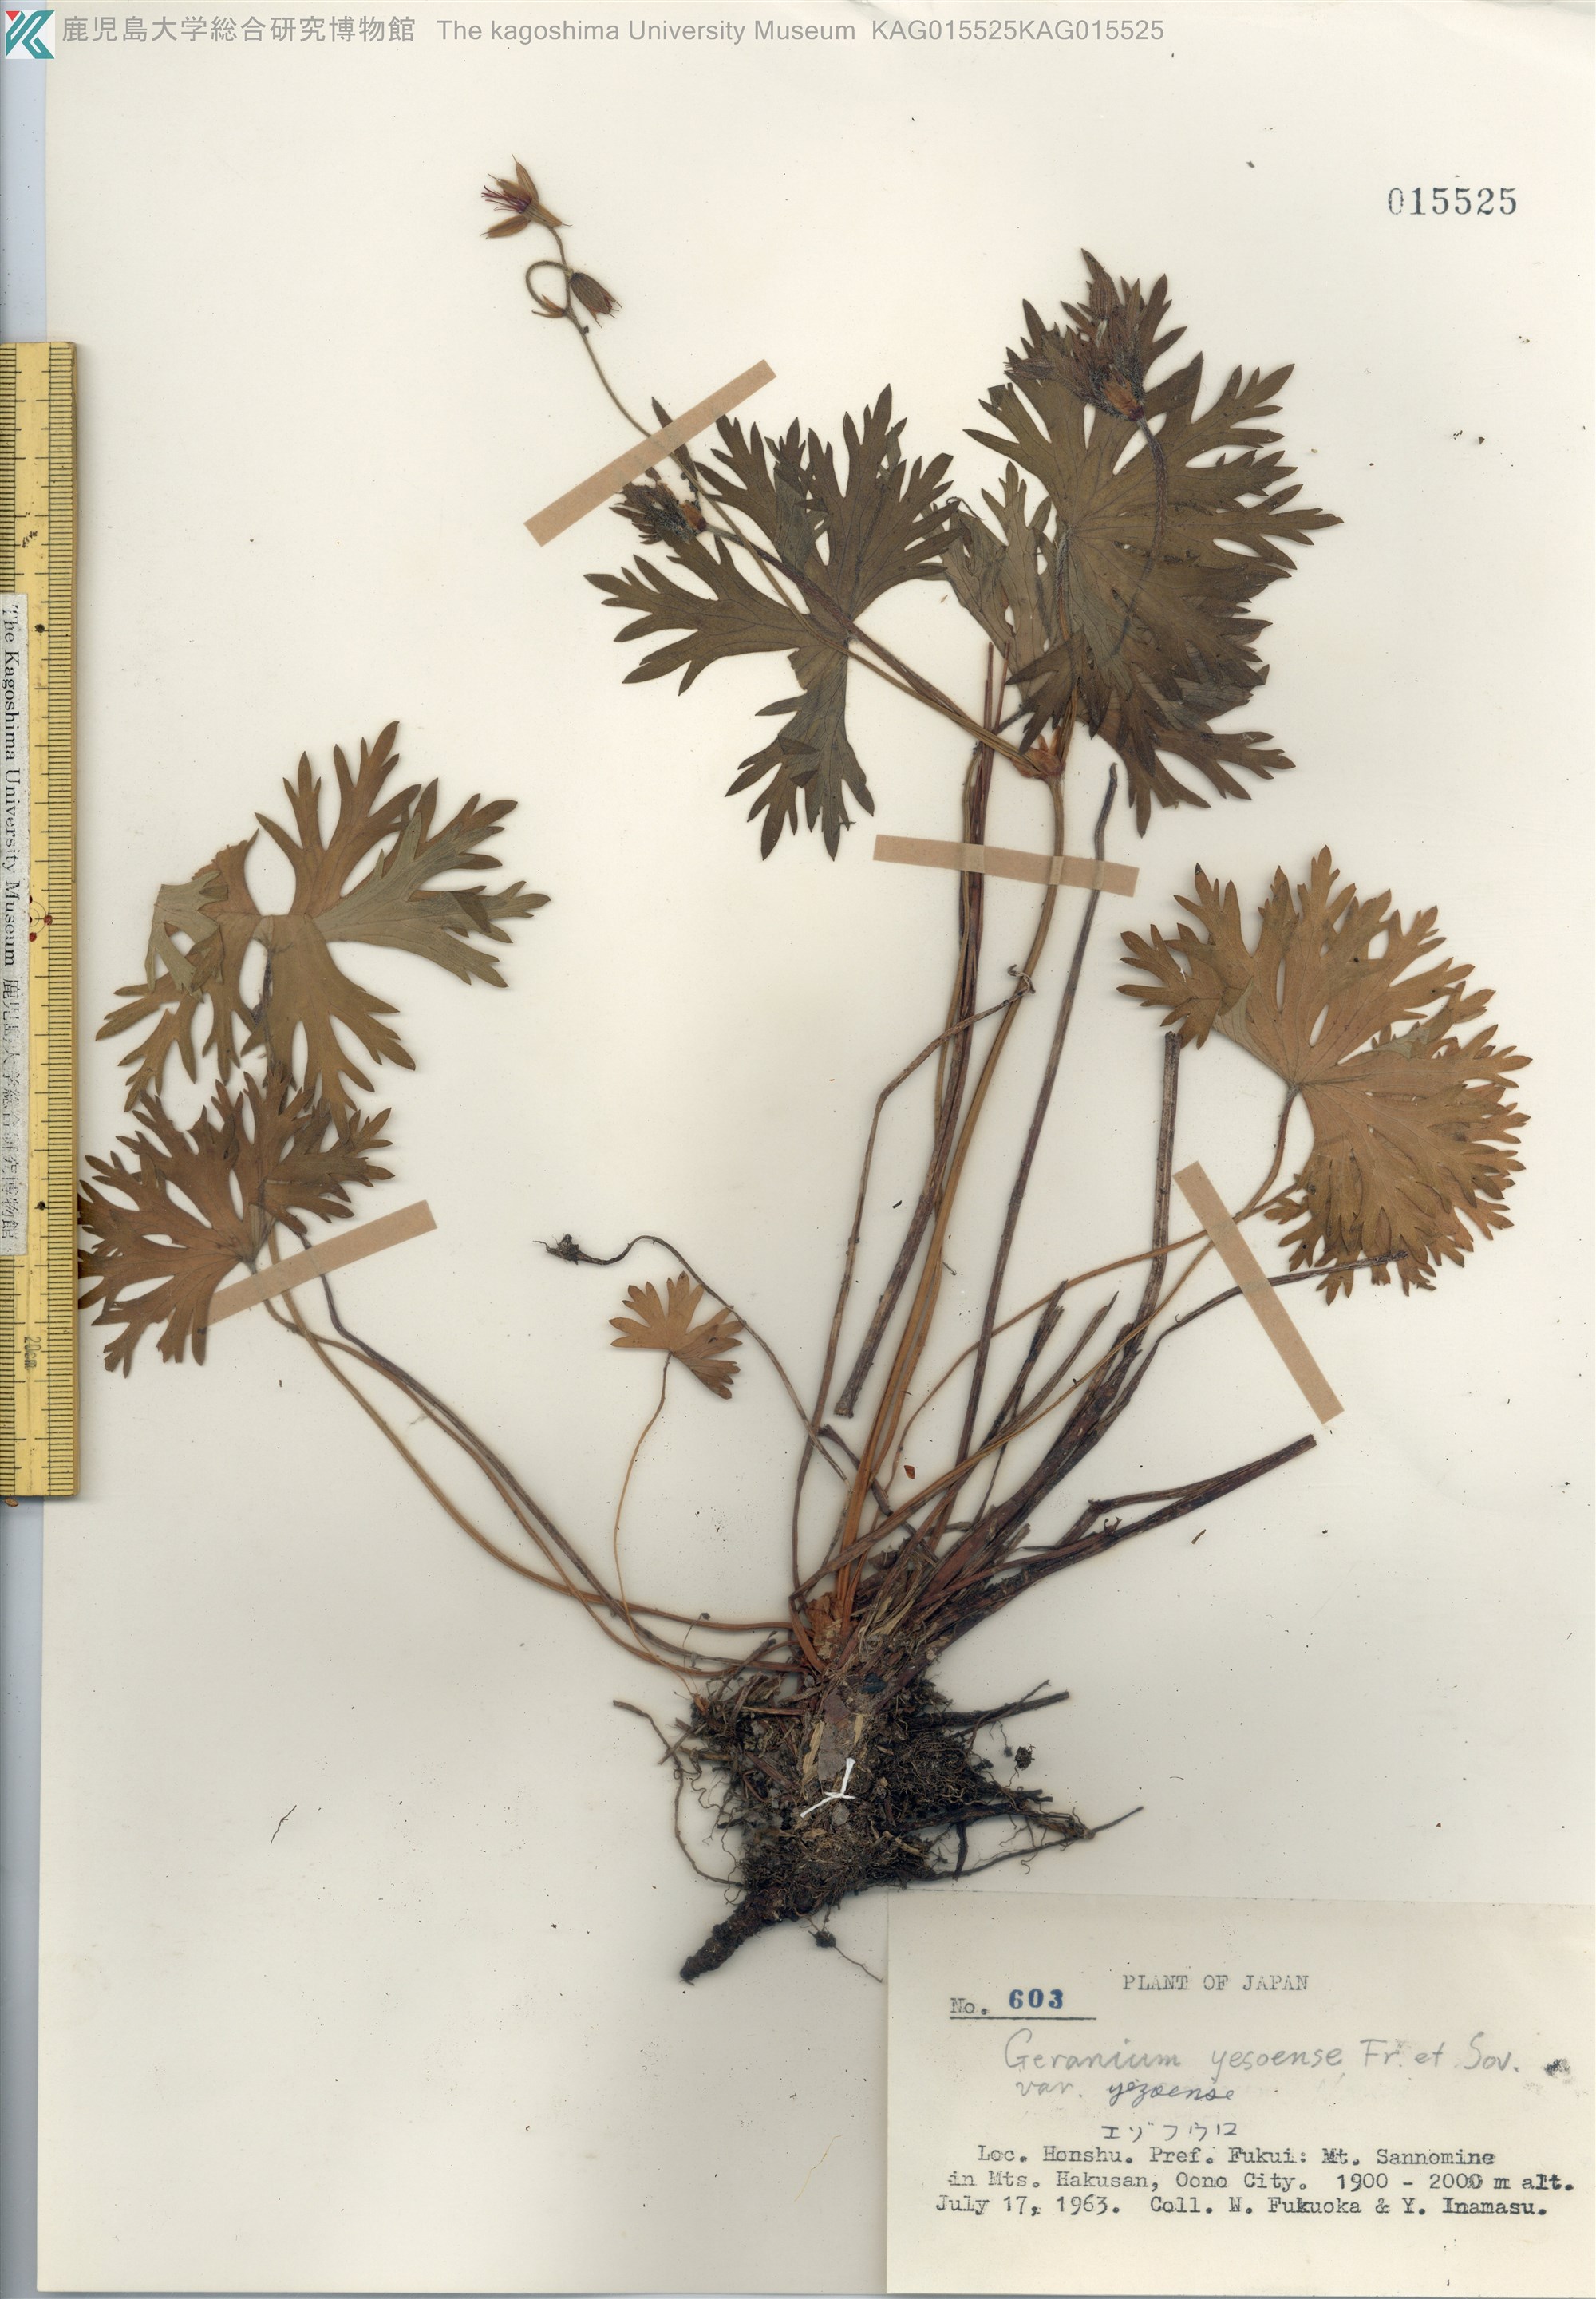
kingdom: Plantae
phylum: Tracheophyta
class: Magnoliopsida
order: Geraniales
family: Geraniaceae
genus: Geranium
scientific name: Geranium yesoense
